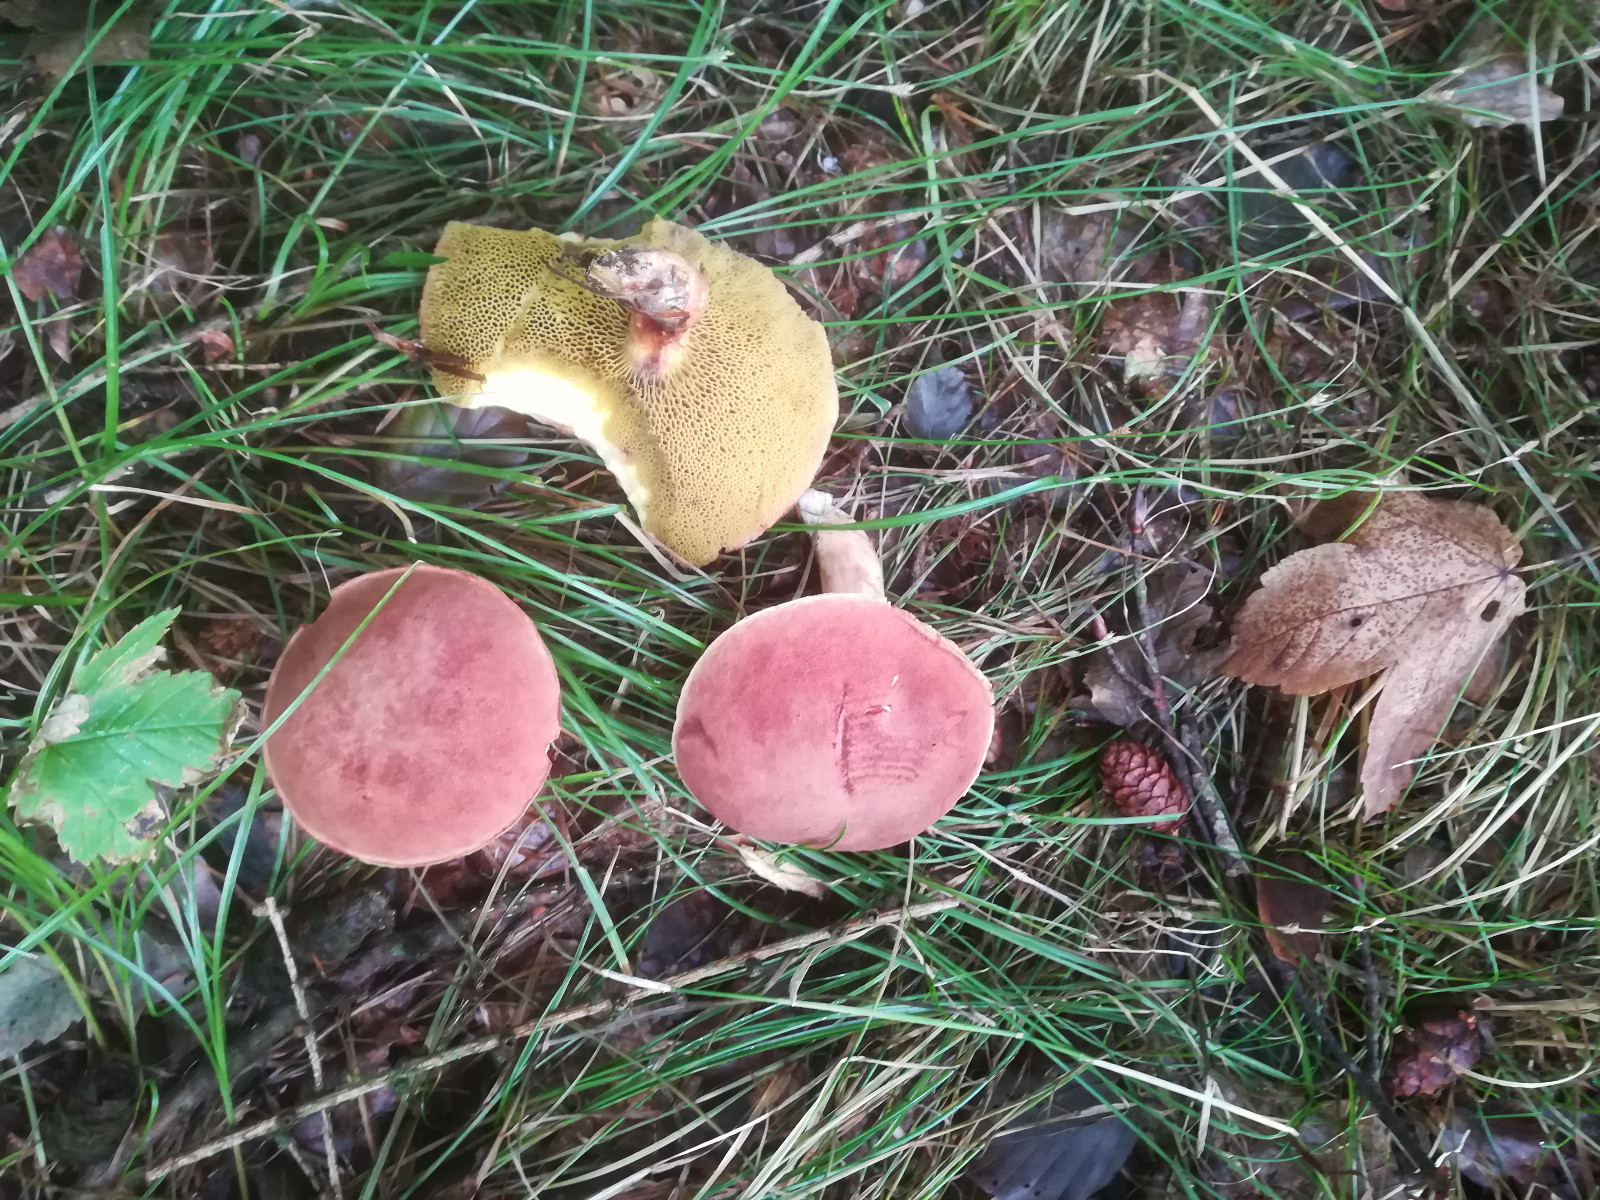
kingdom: Fungi
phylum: Basidiomycota
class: Agaricomycetes
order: Boletales
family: Boletaceae
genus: Xerocomus
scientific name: Xerocomus subtomentosus
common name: filtet rørhat
